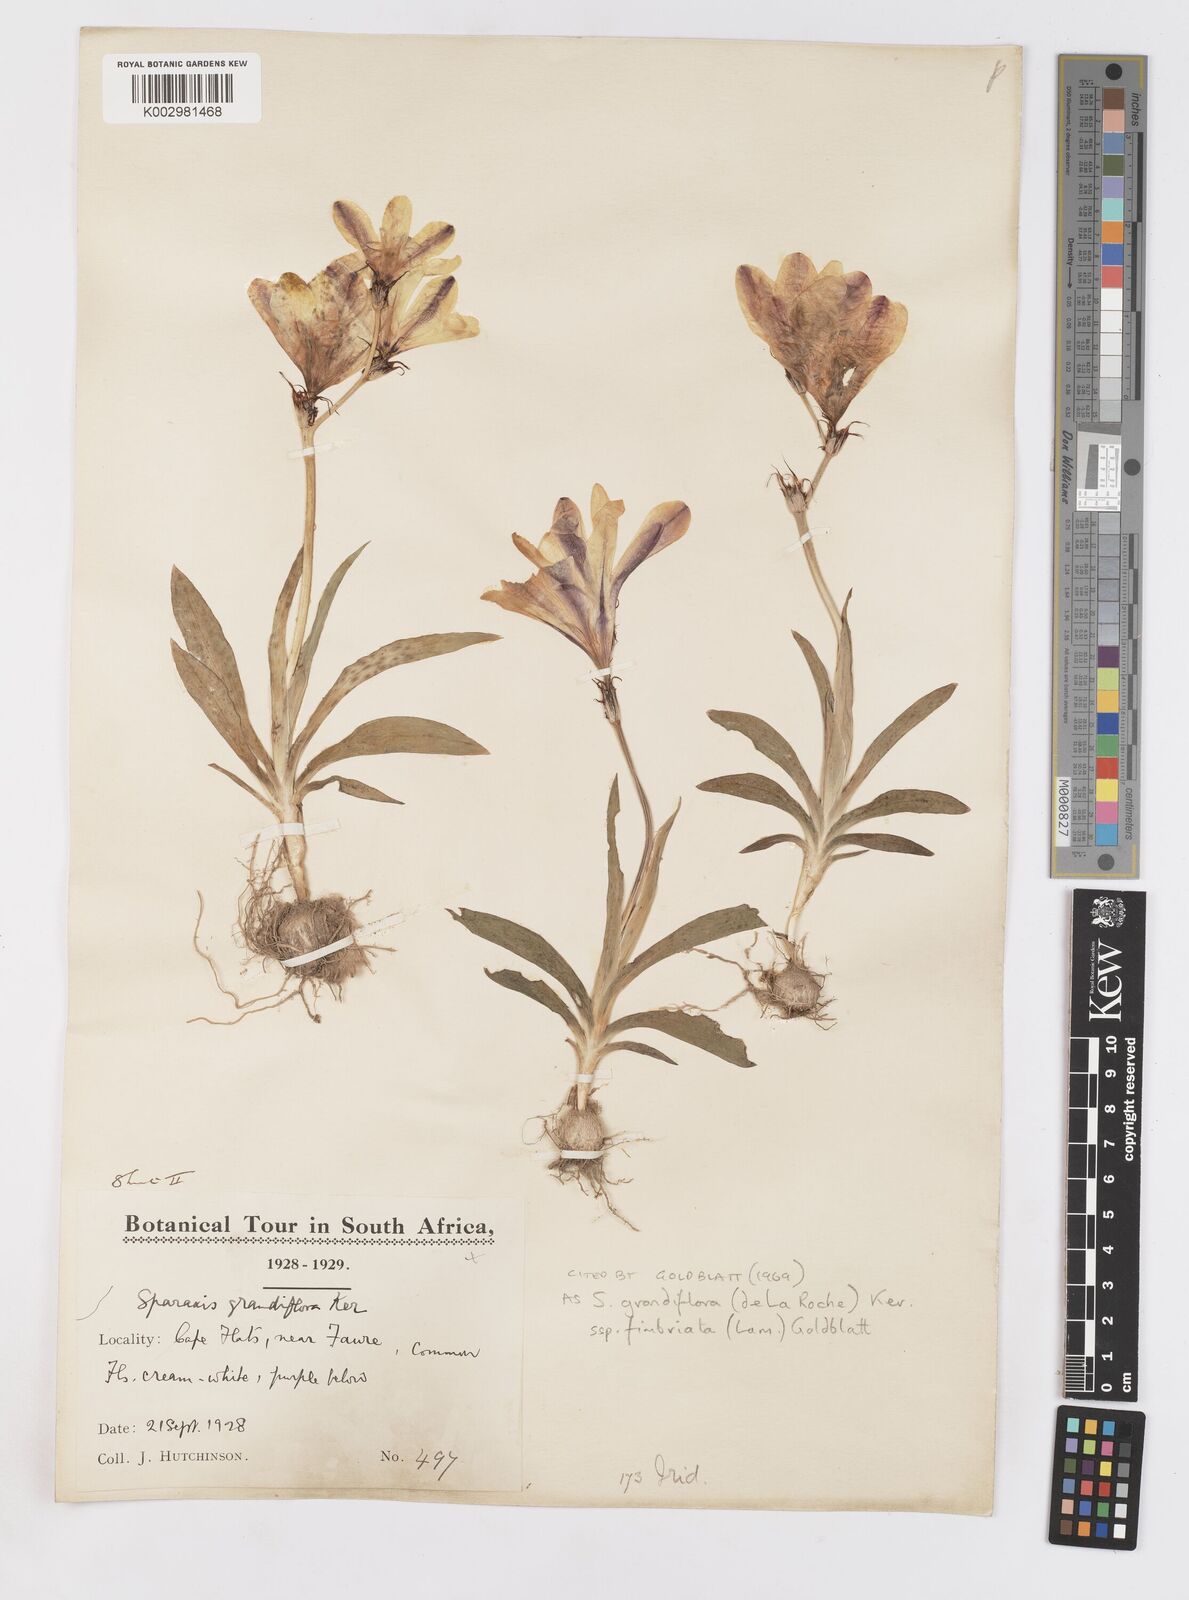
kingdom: Plantae
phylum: Tracheophyta
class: Liliopsida
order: Asparagales
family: Iridaceae
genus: Sparaxis
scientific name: Sparaxis grandiflora
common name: Plain harlequin-flower
